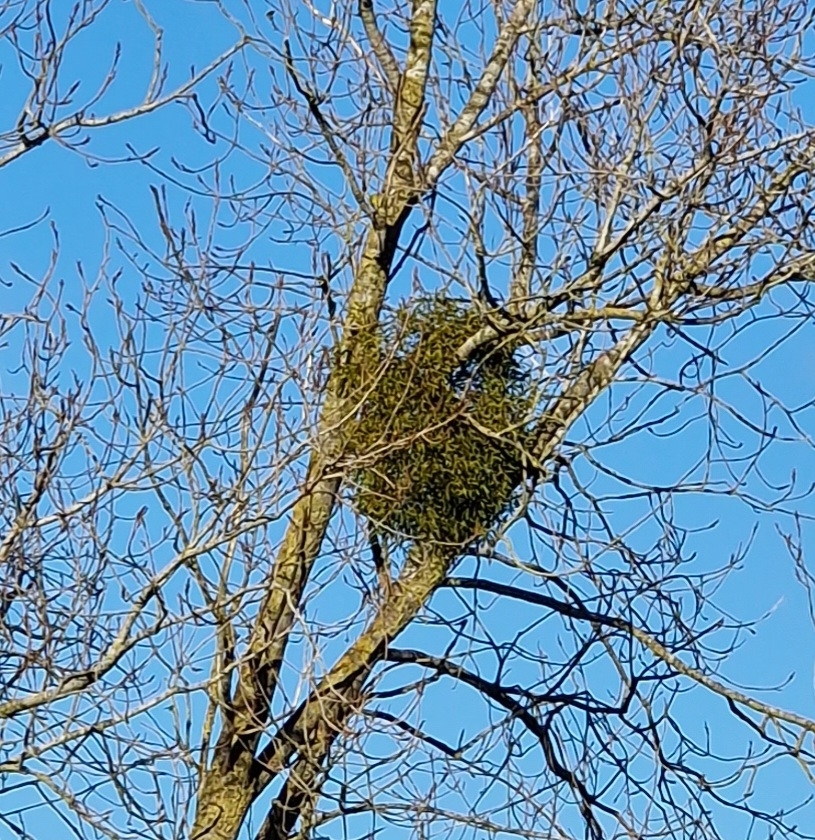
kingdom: Plantae
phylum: Tracheophyta
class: Magnoliopsida
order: Santalales
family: Viscaceae
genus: Viscum
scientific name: Viscum album
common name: Mistelten
